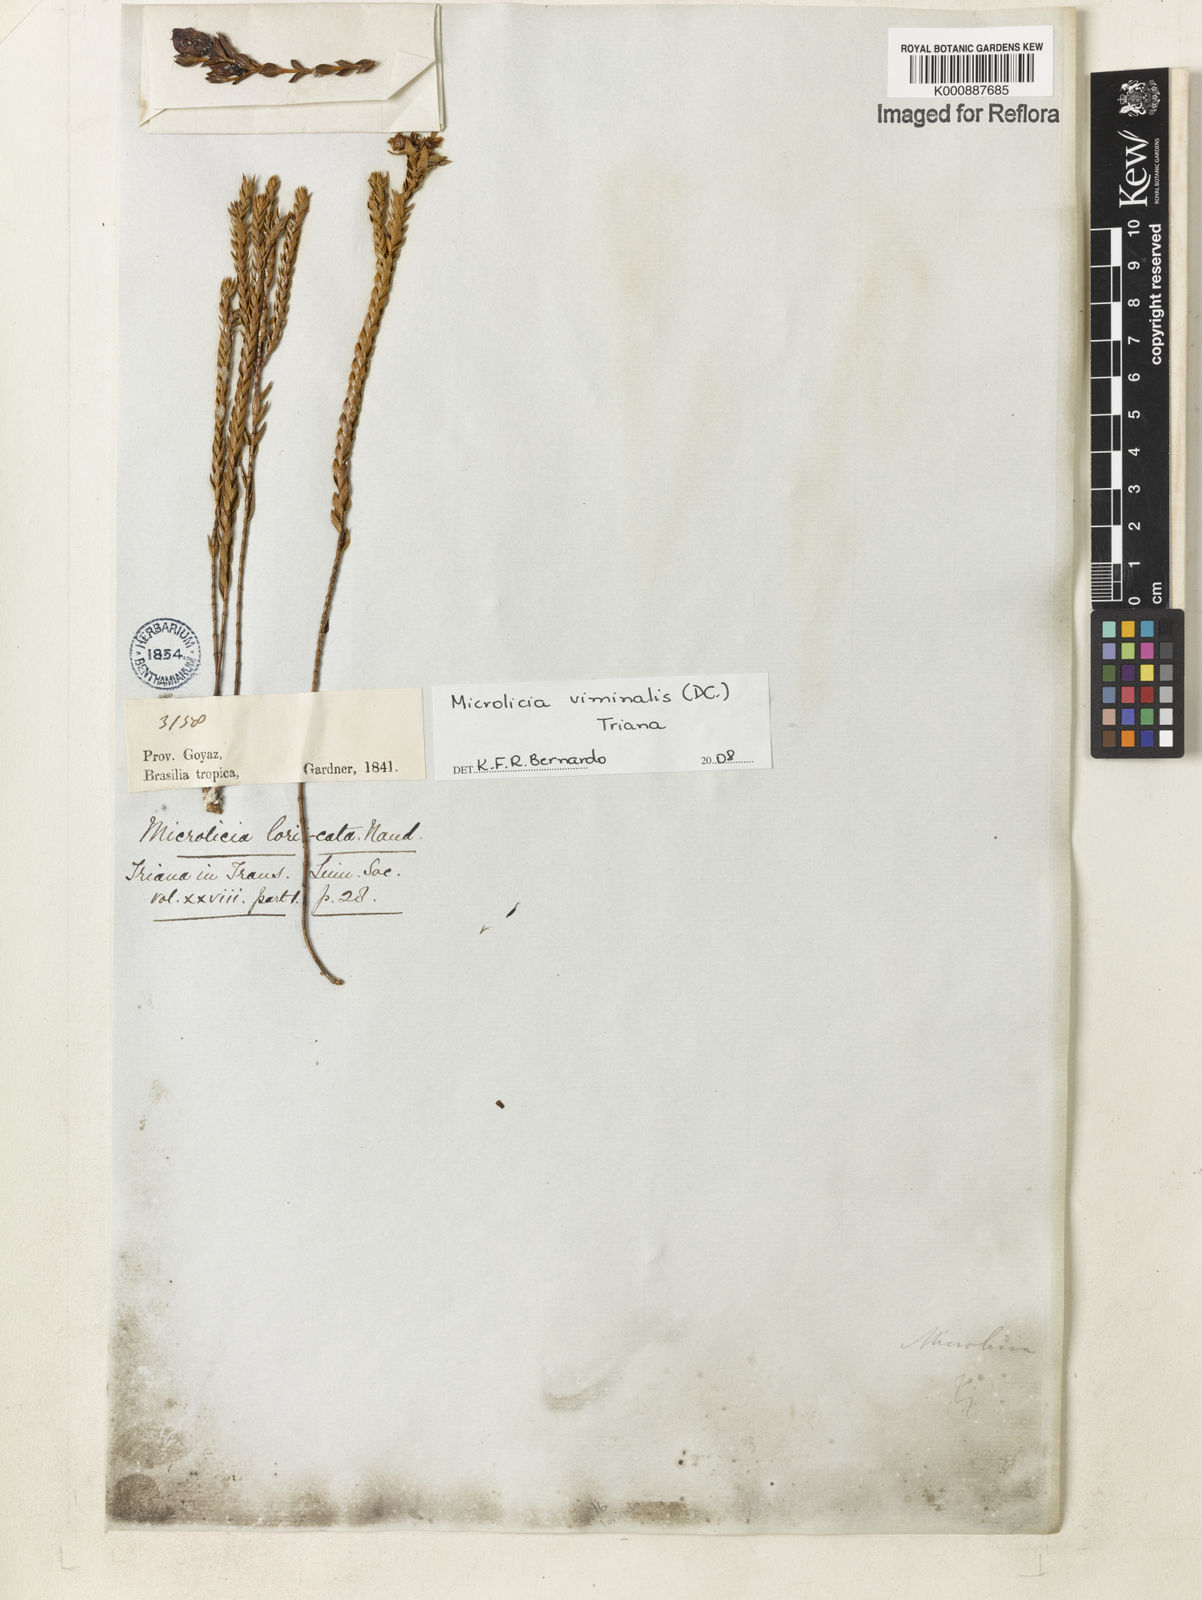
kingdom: Plantae
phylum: Tracheophyta
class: Magnoliopsida
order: Myrtales
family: Melastomataceae
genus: Microlicia
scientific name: Microlicia viminalis
